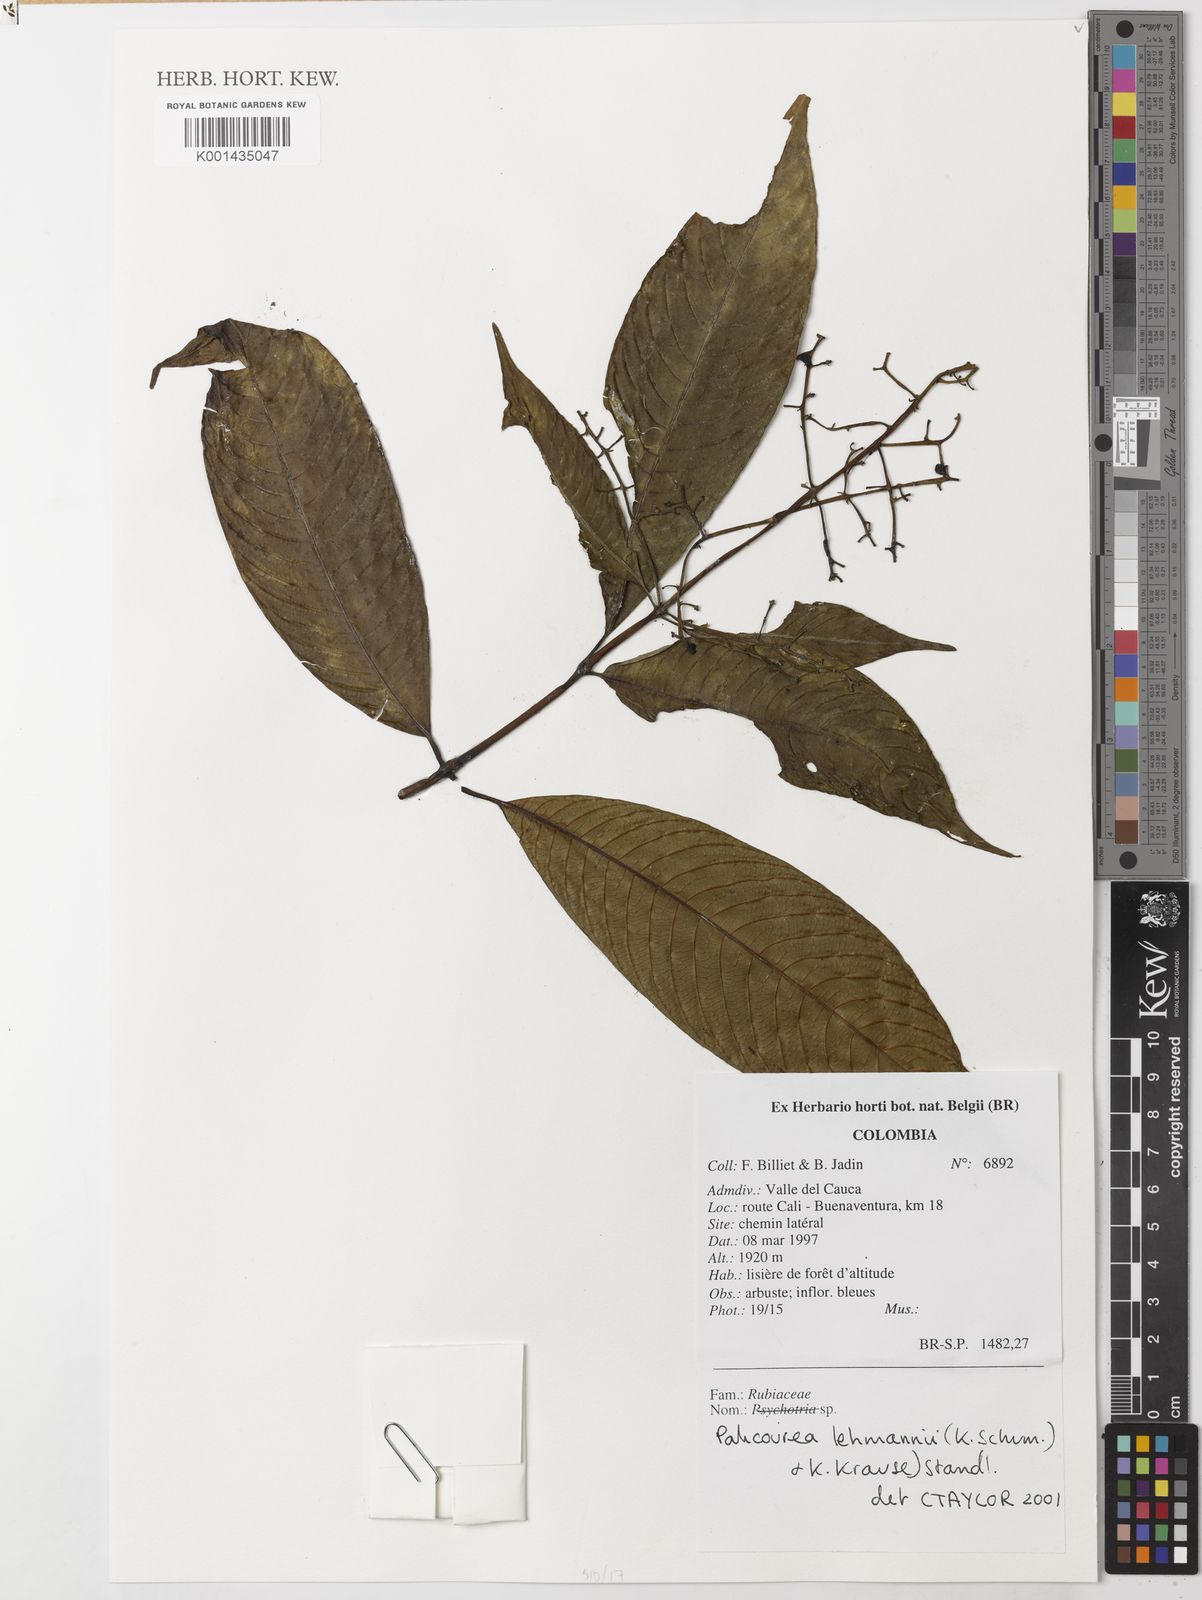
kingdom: Plantae
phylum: Tracheophyta
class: Magnoliopsida
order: Gentianales
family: Rubiaceae
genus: Palicourea
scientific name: Palicourea lehmannii
